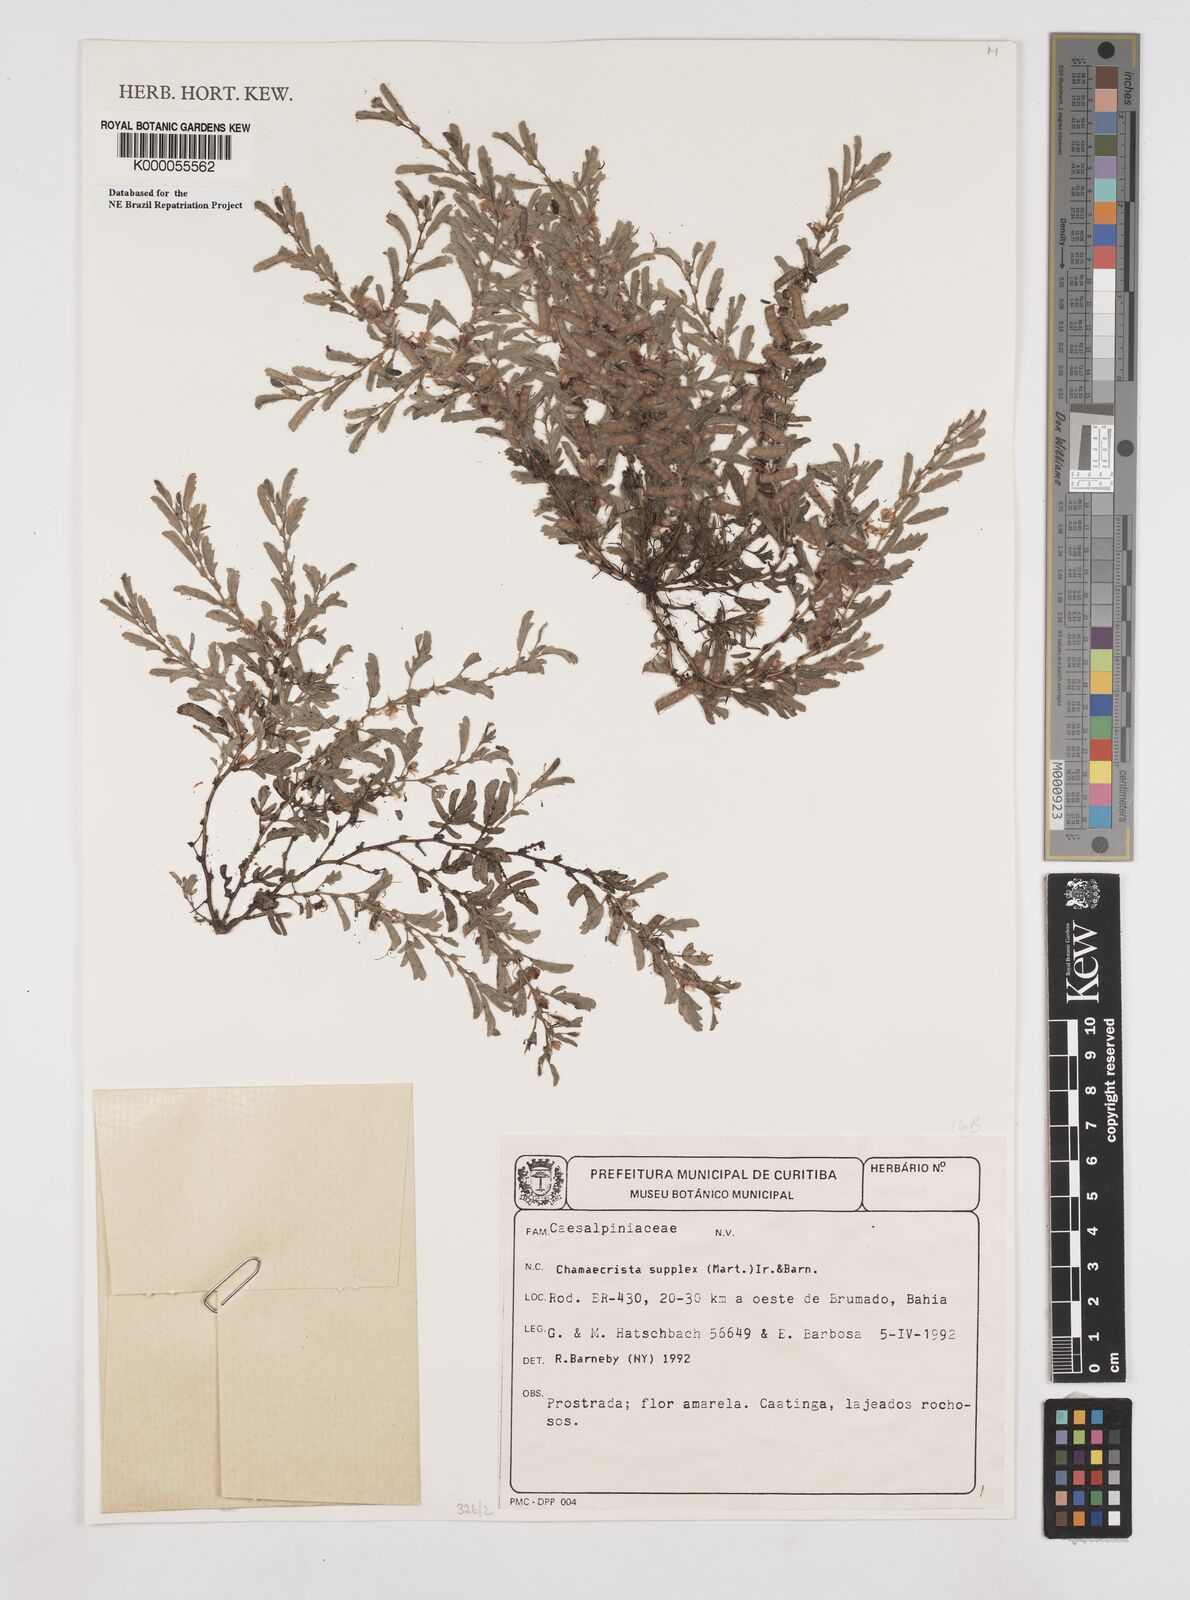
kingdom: Plantae
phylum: Tracheophyta
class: Magnoliopsida
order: Fabales
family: Fabaceae
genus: Chamaecrista
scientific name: Chamaecrista
